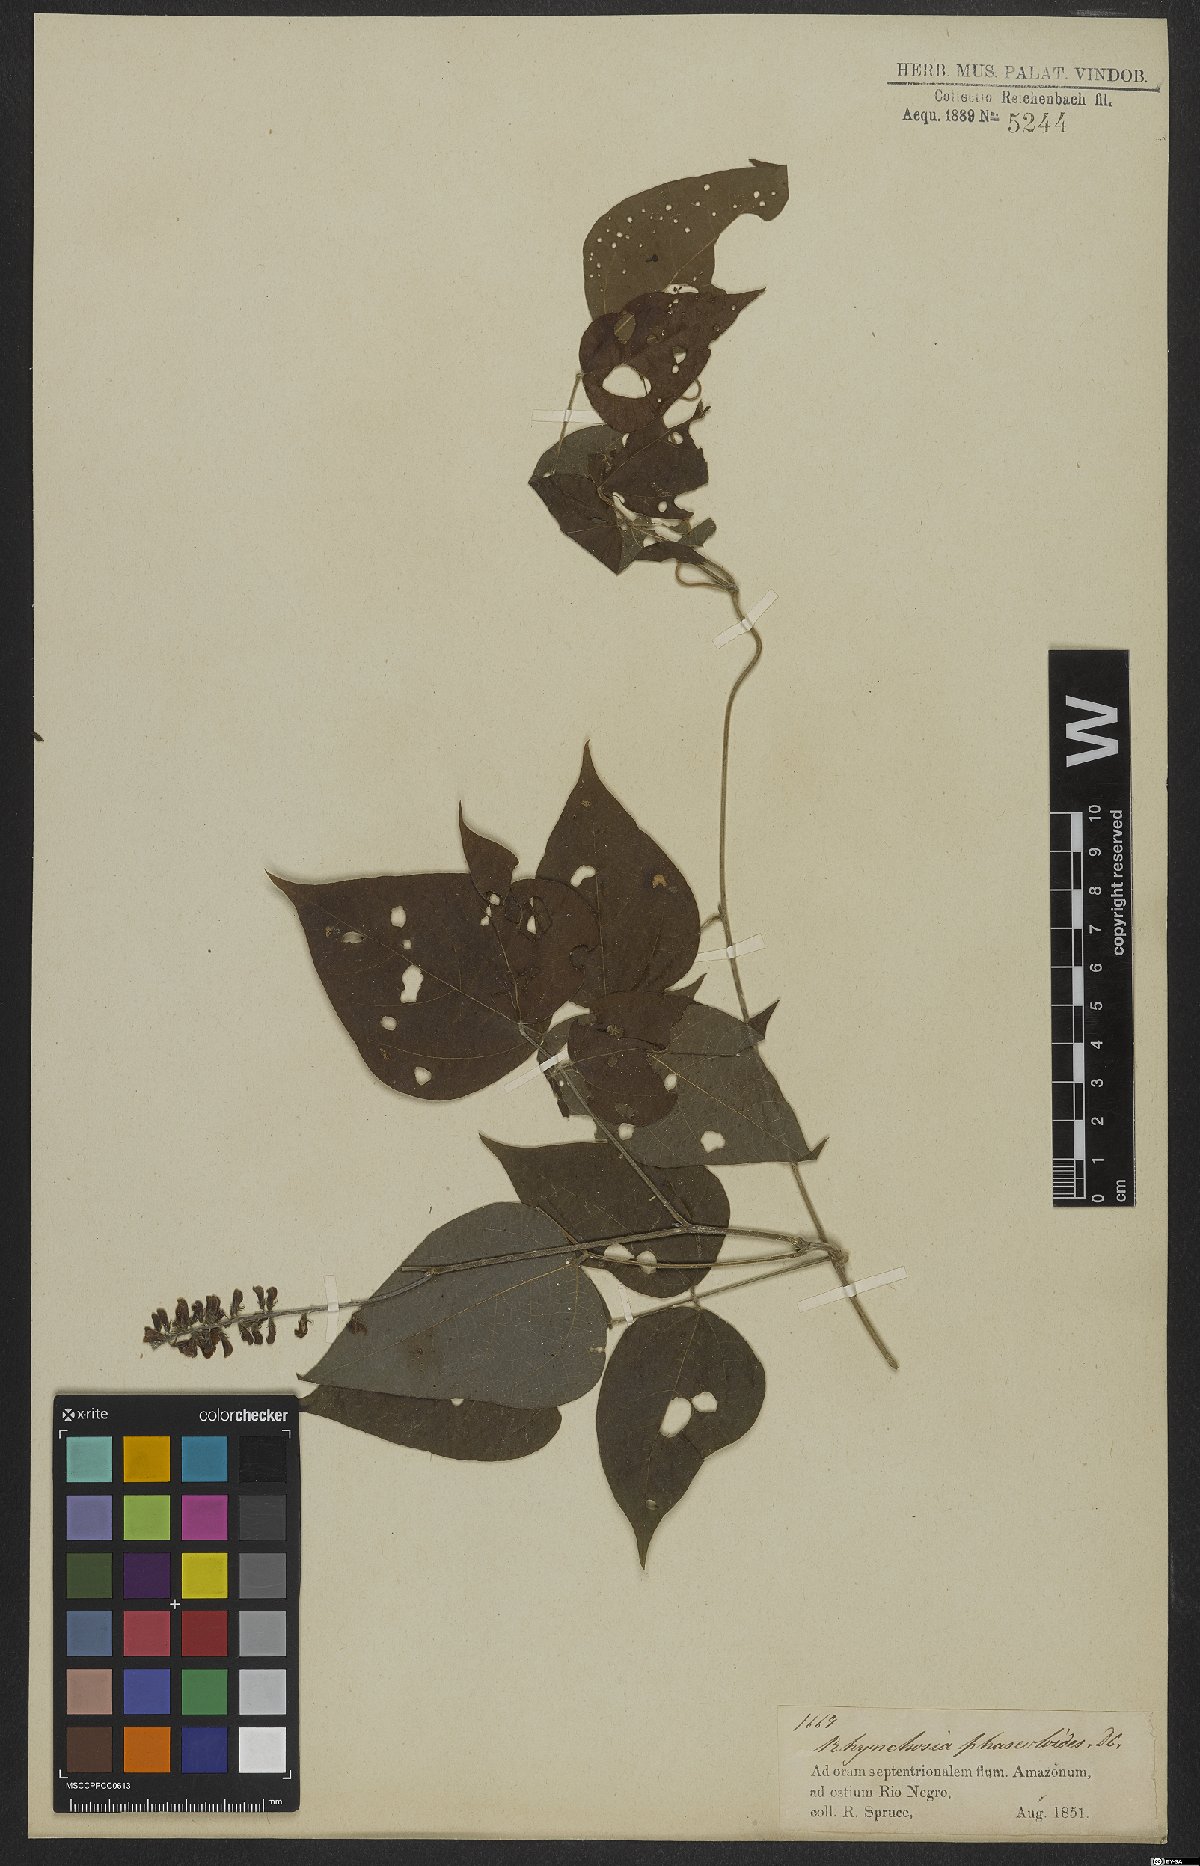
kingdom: Plantae
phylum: Tracheophyta
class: Magnoliopsida
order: Fabales
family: Fabaceae
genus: Rhynchosia
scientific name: Rhynchosia phaseoloides
